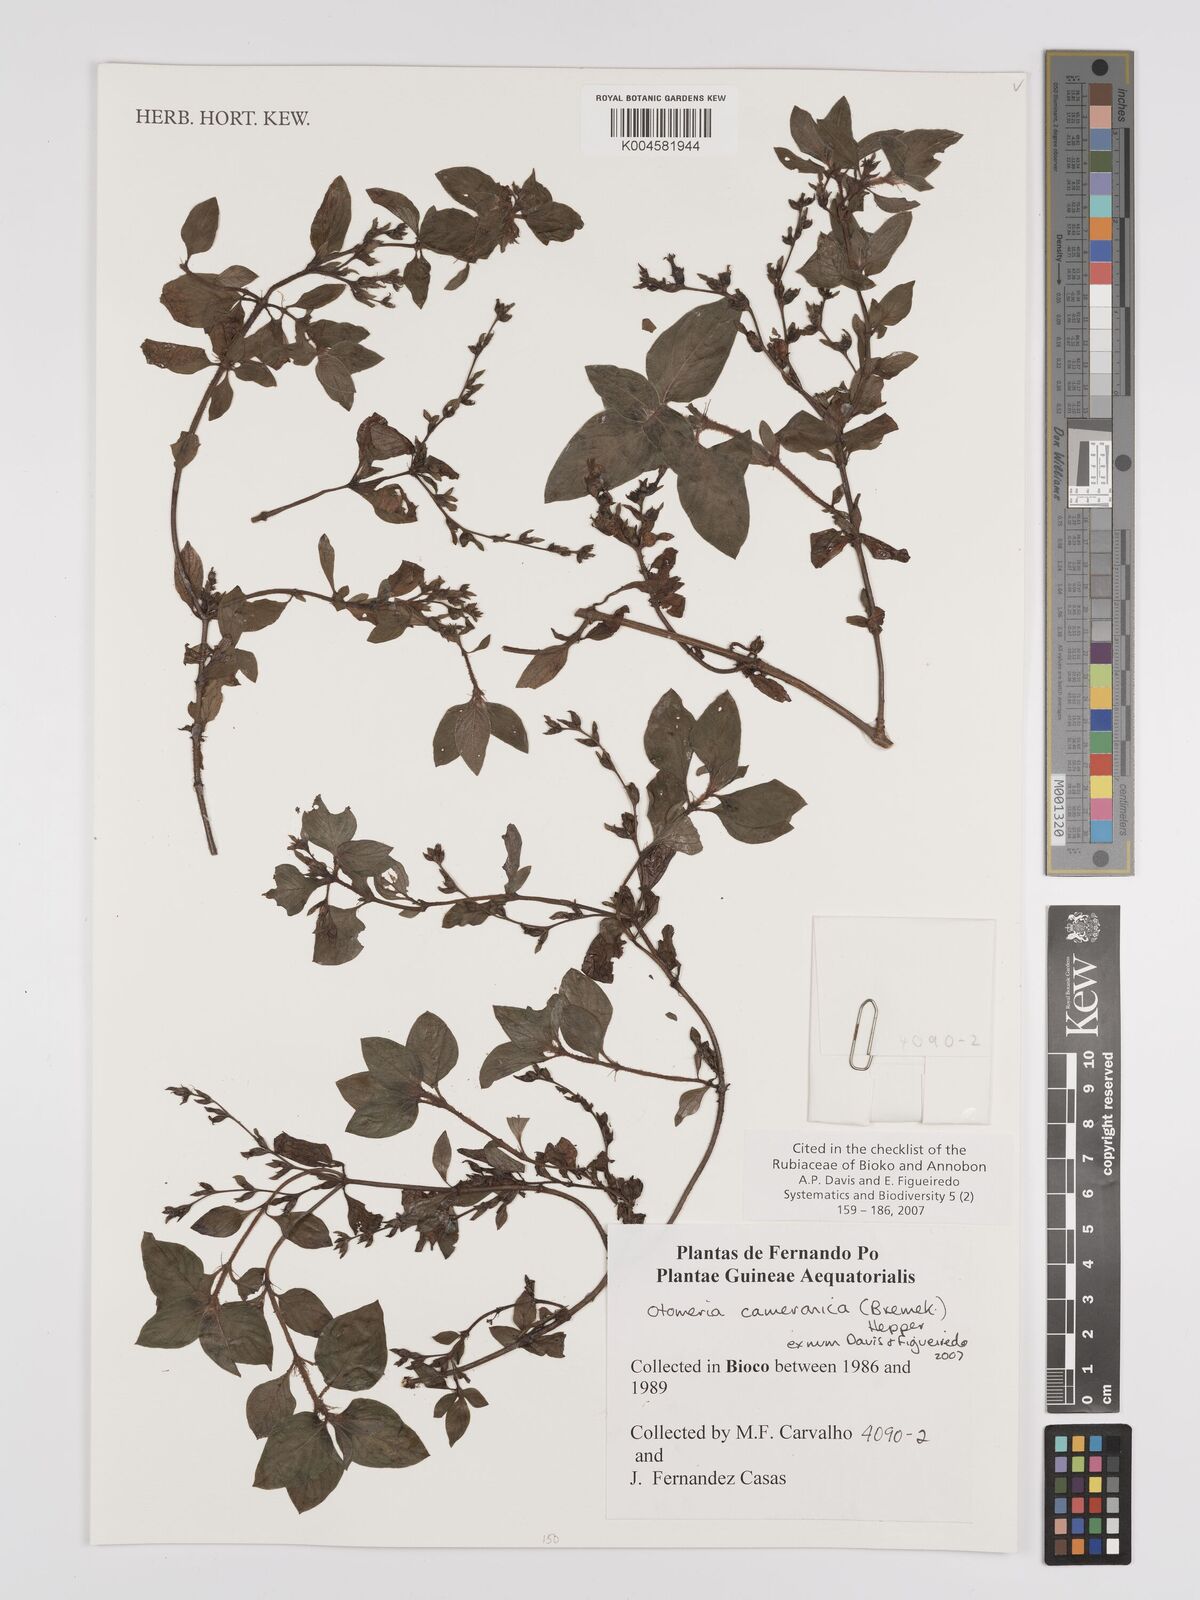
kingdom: Plantae
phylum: Tracheophyta
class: Magnoliopsida
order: Gentianales
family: Rubiaceae
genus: Otomeria
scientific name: Otomeria cameronica
